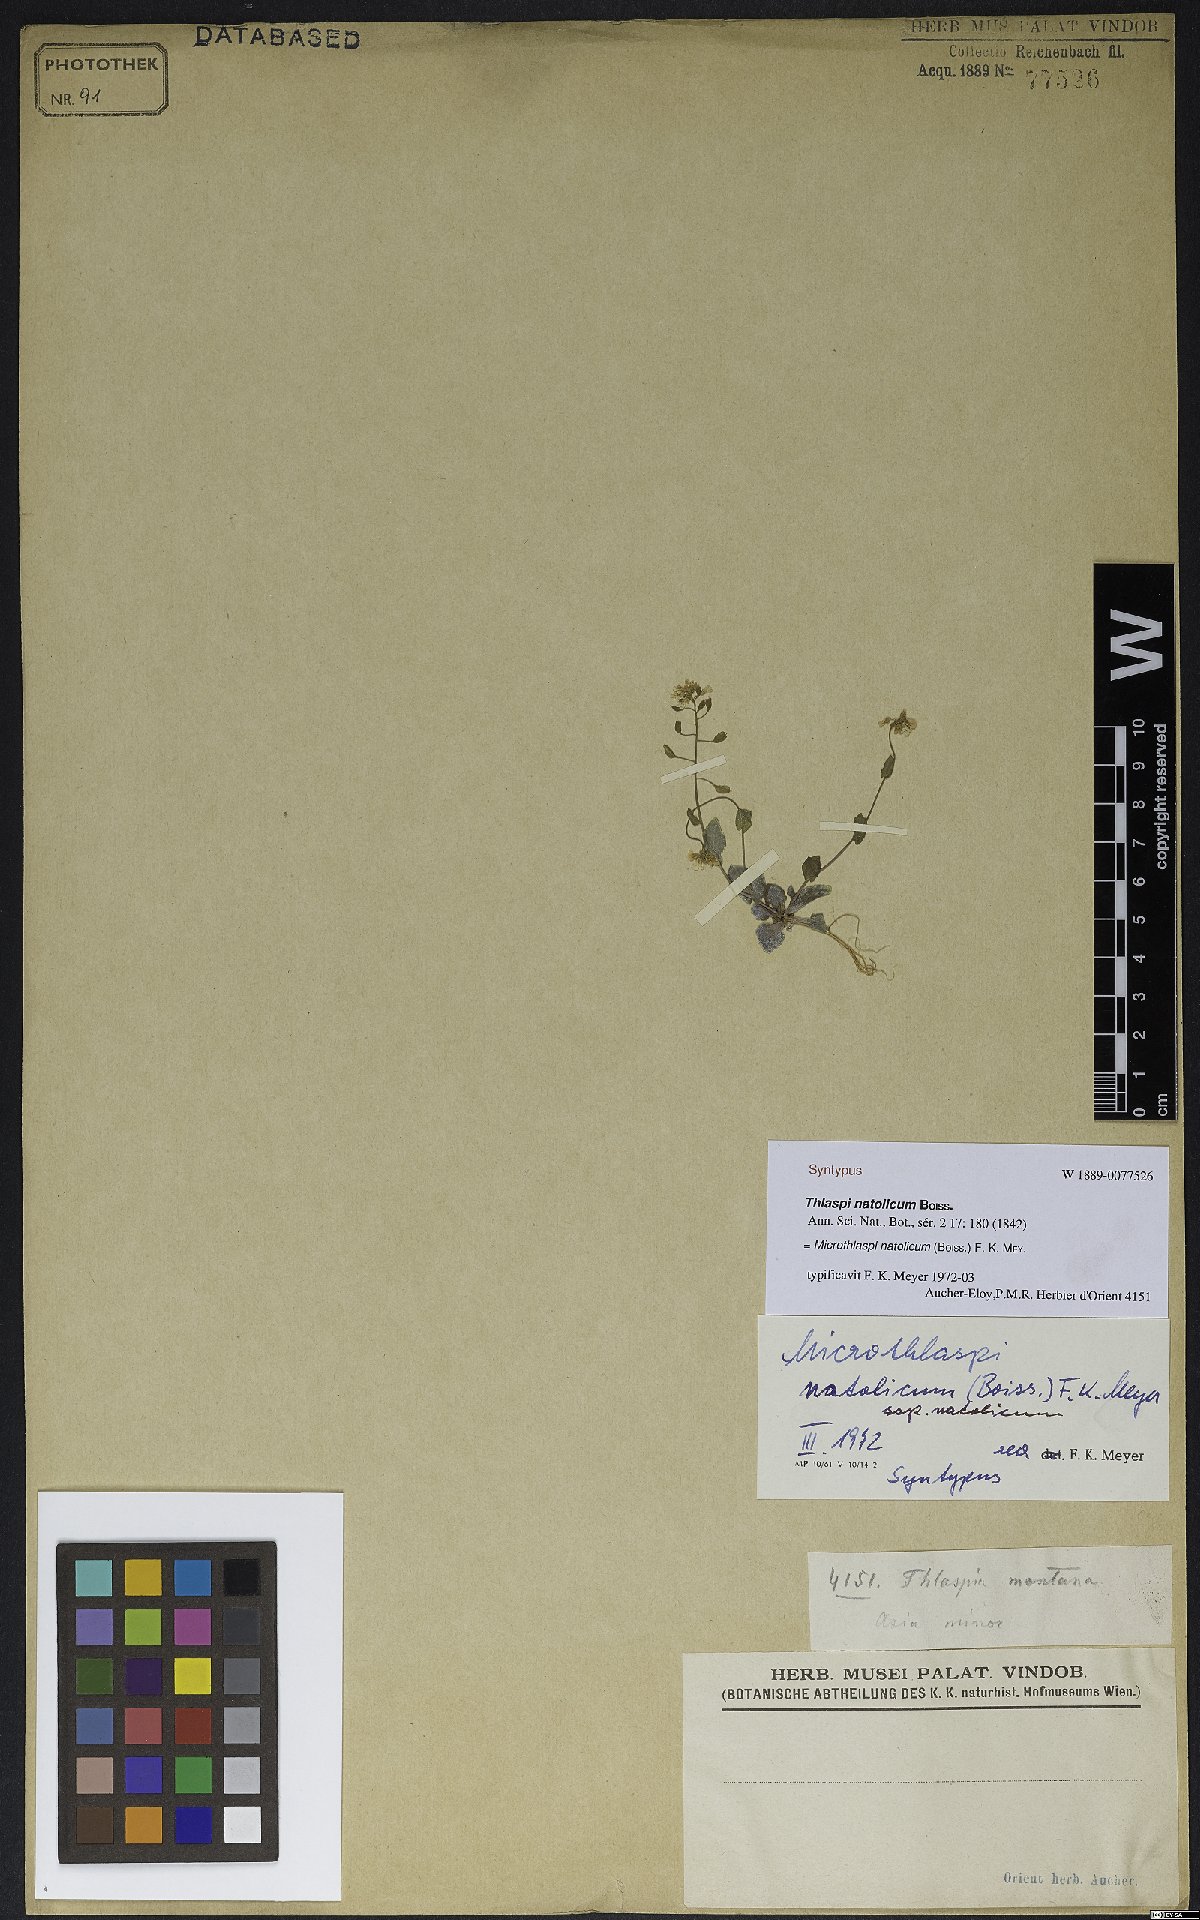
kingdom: Plantae
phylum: Tracheophyta
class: Magnoliopsida
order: Brassicales
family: Brassicaceae
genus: Noccaea
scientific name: Noccaea natolica
